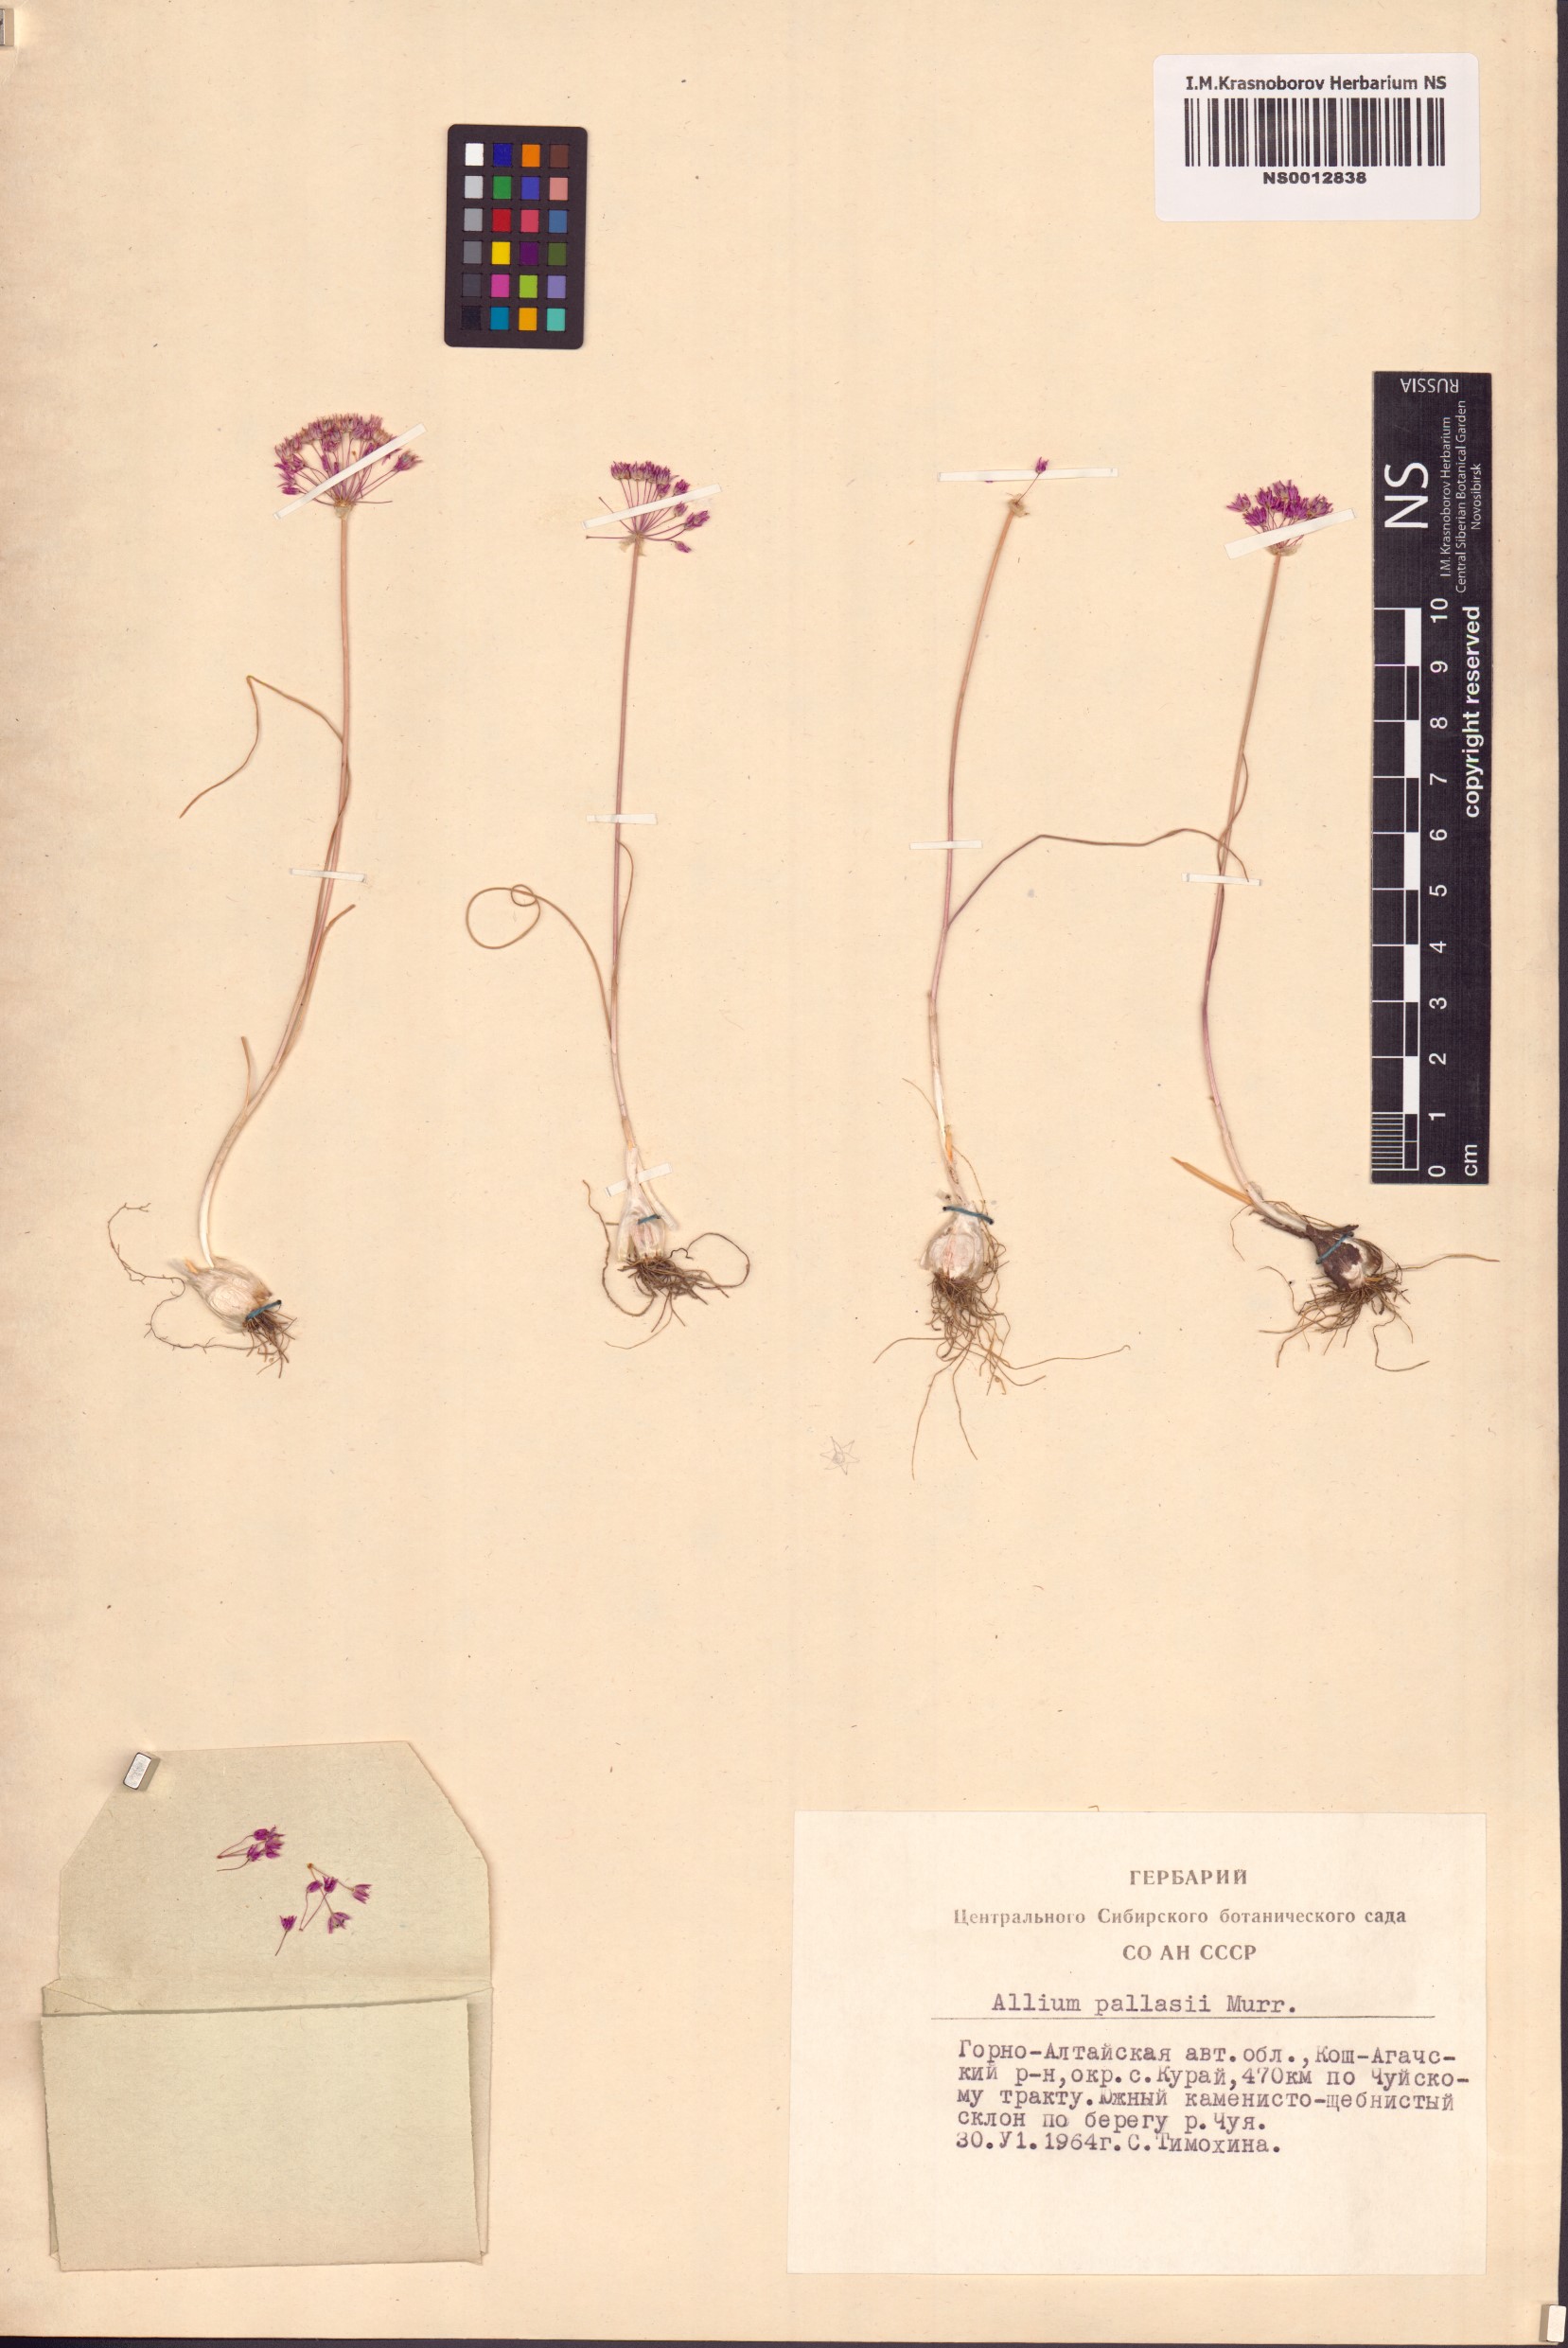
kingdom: Plantae
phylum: Tracheophyta
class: Liliopsida
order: Asparagales
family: Amaryllidaceae
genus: Allium
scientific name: Allium pallasii
